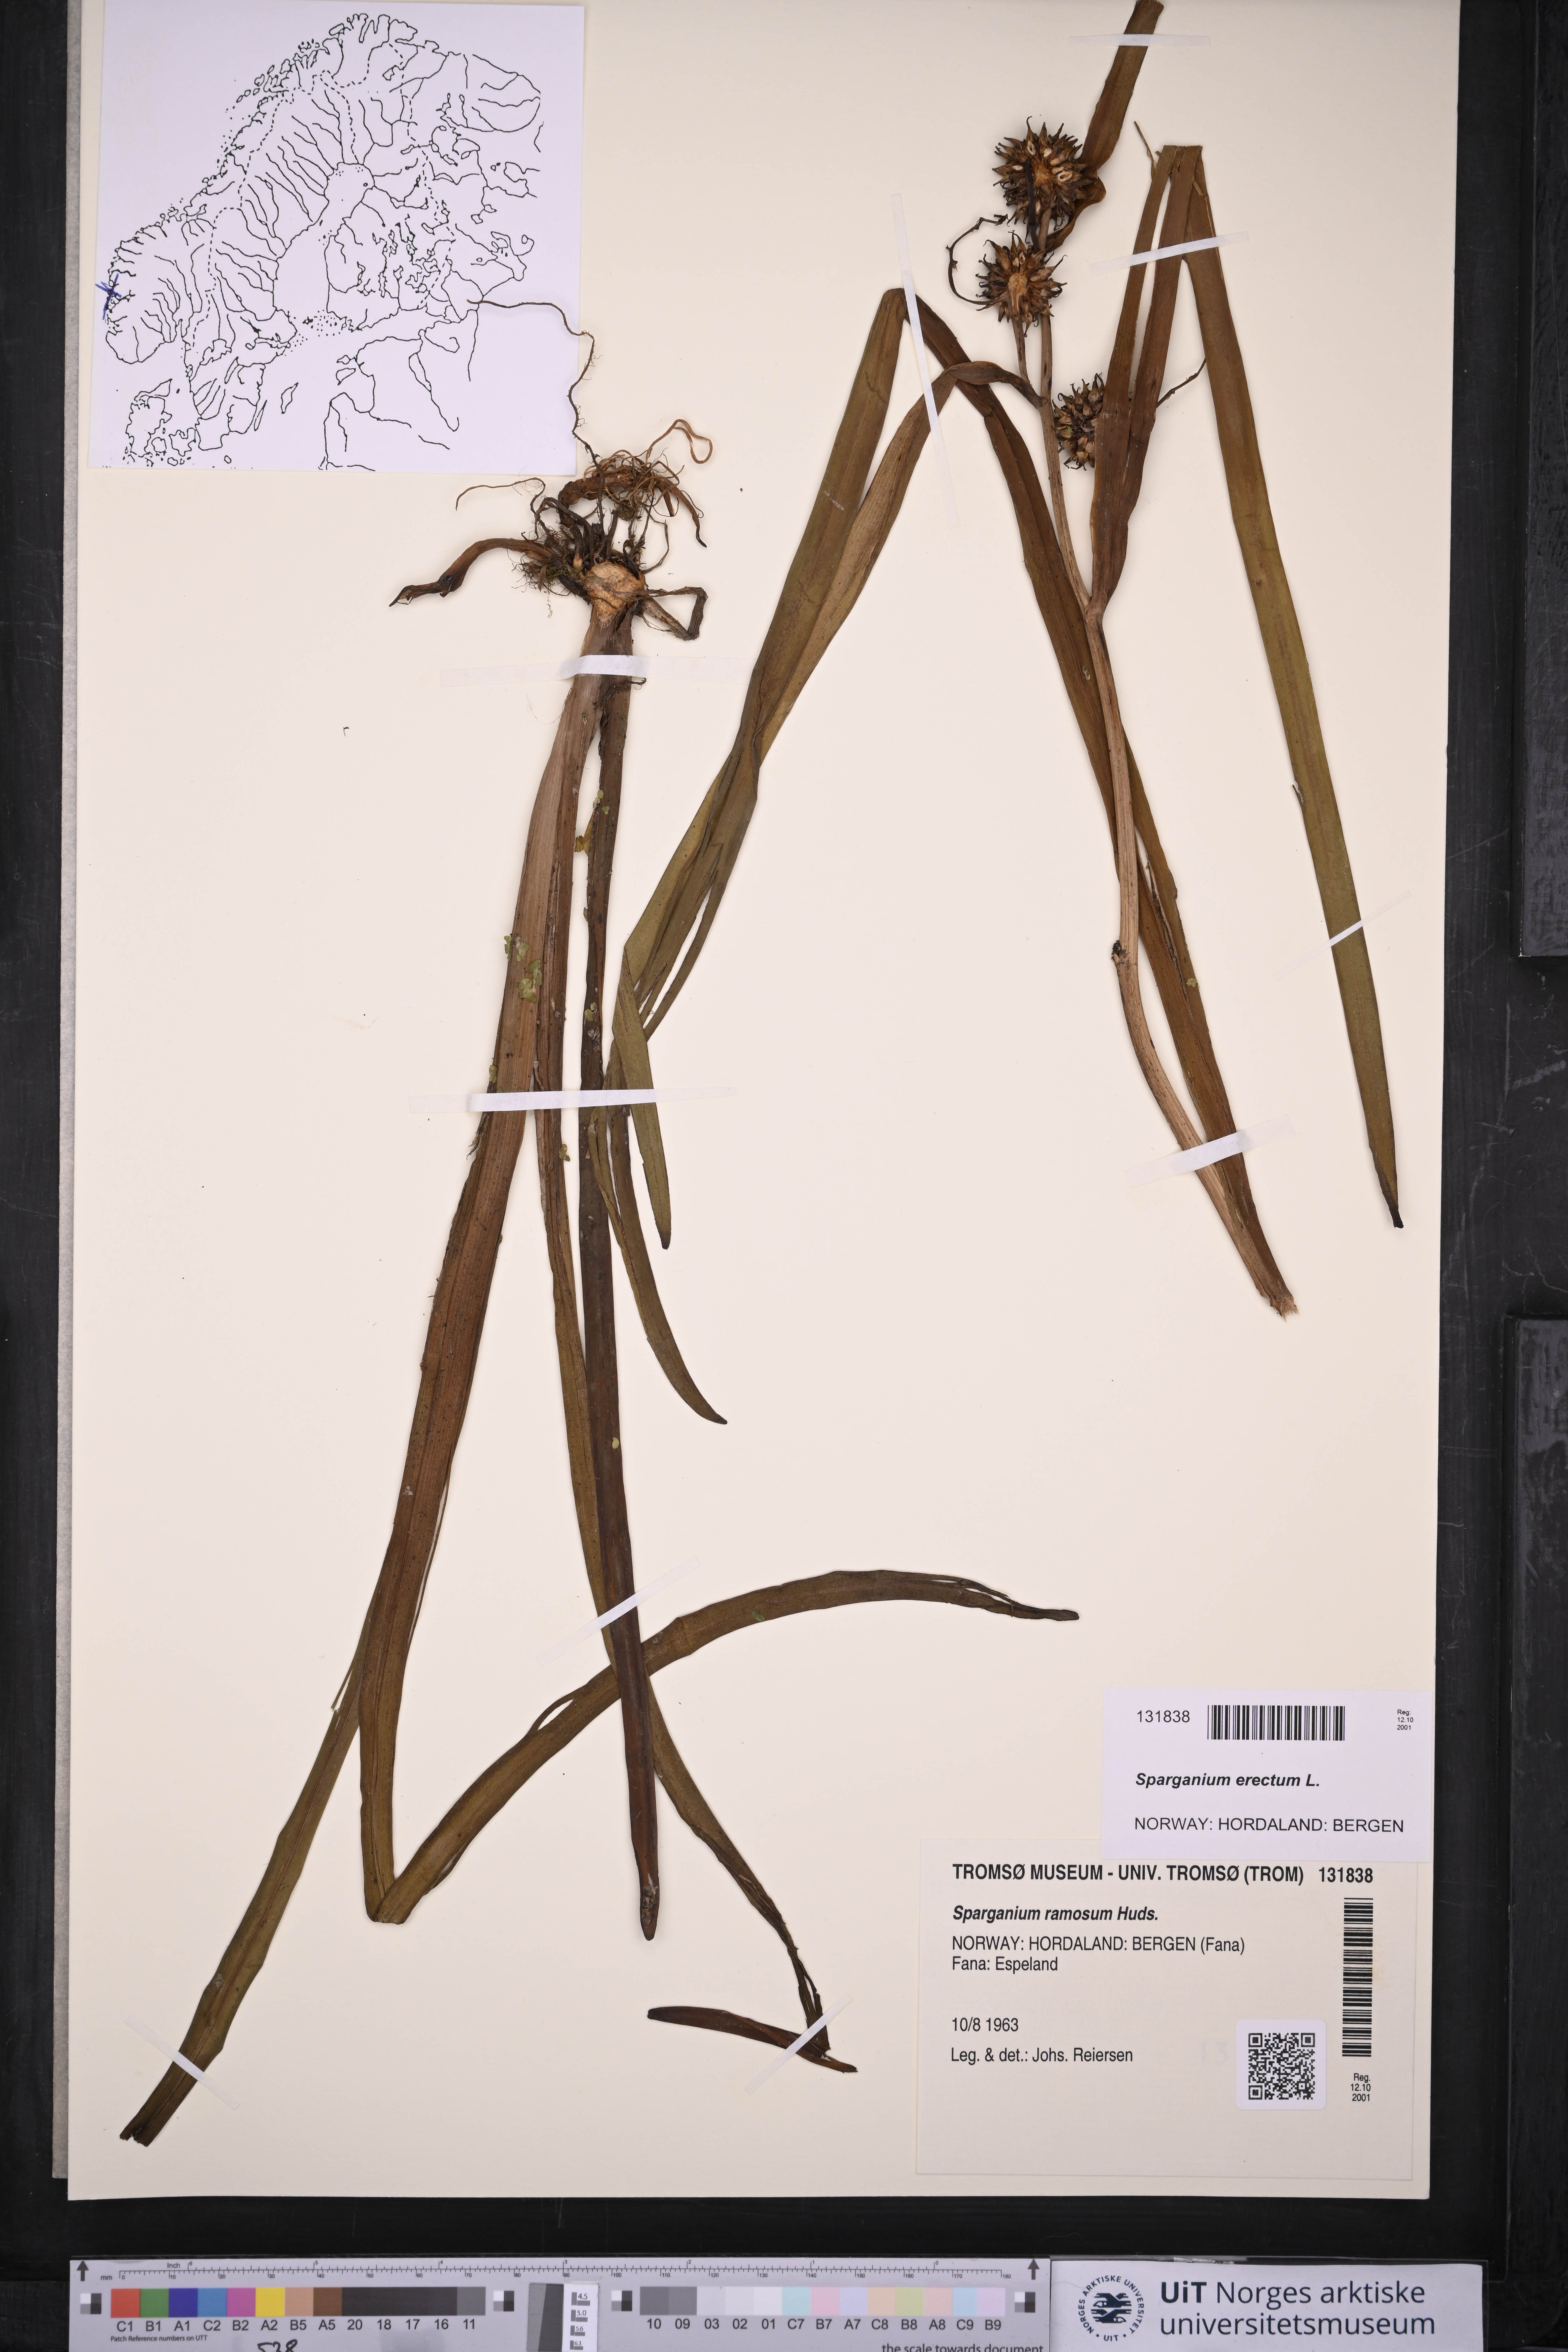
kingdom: Plantae
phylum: Tracheophyta
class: Liliopsida
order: Poales
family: Typhaceae
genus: Sparganium
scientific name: Sparganium erectum
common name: Branched bur-reed
